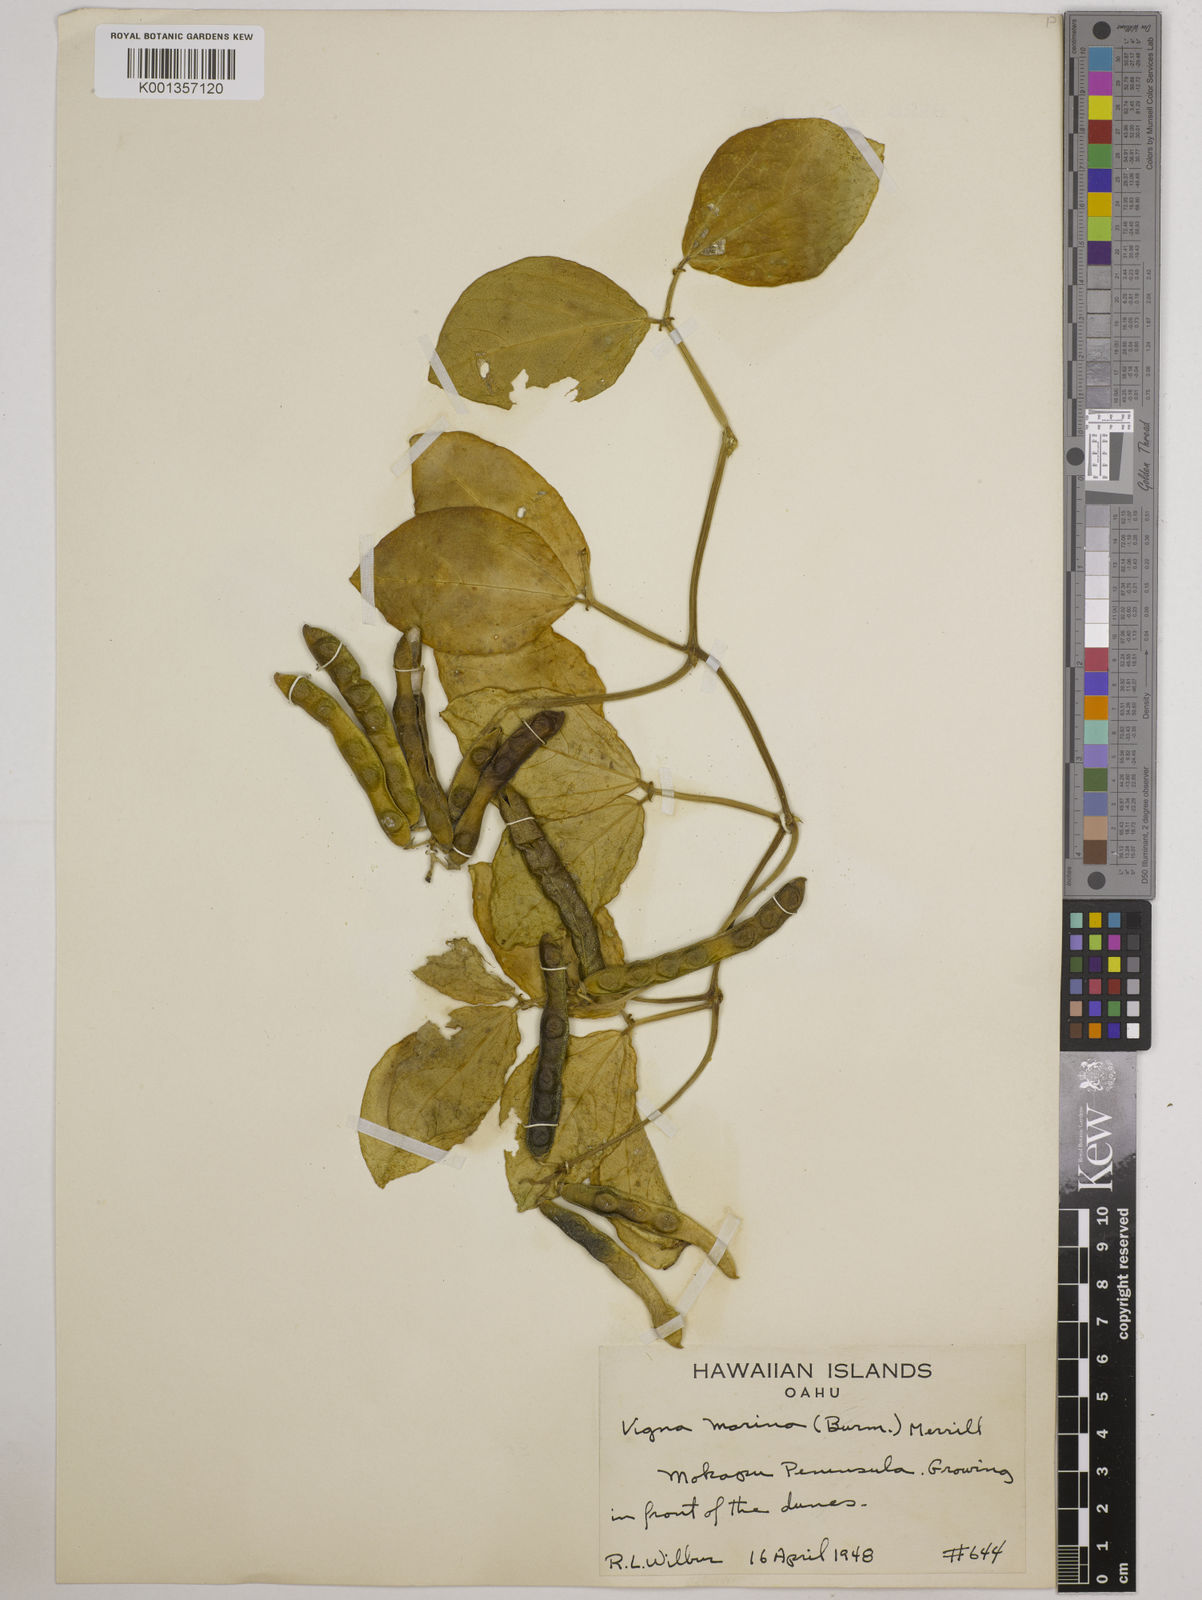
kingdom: Plantae
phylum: Tracheophyta
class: Magnoliopsida
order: Fabales
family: Fabaceae
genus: Vigna
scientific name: Vigna marina
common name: Dune-bean
